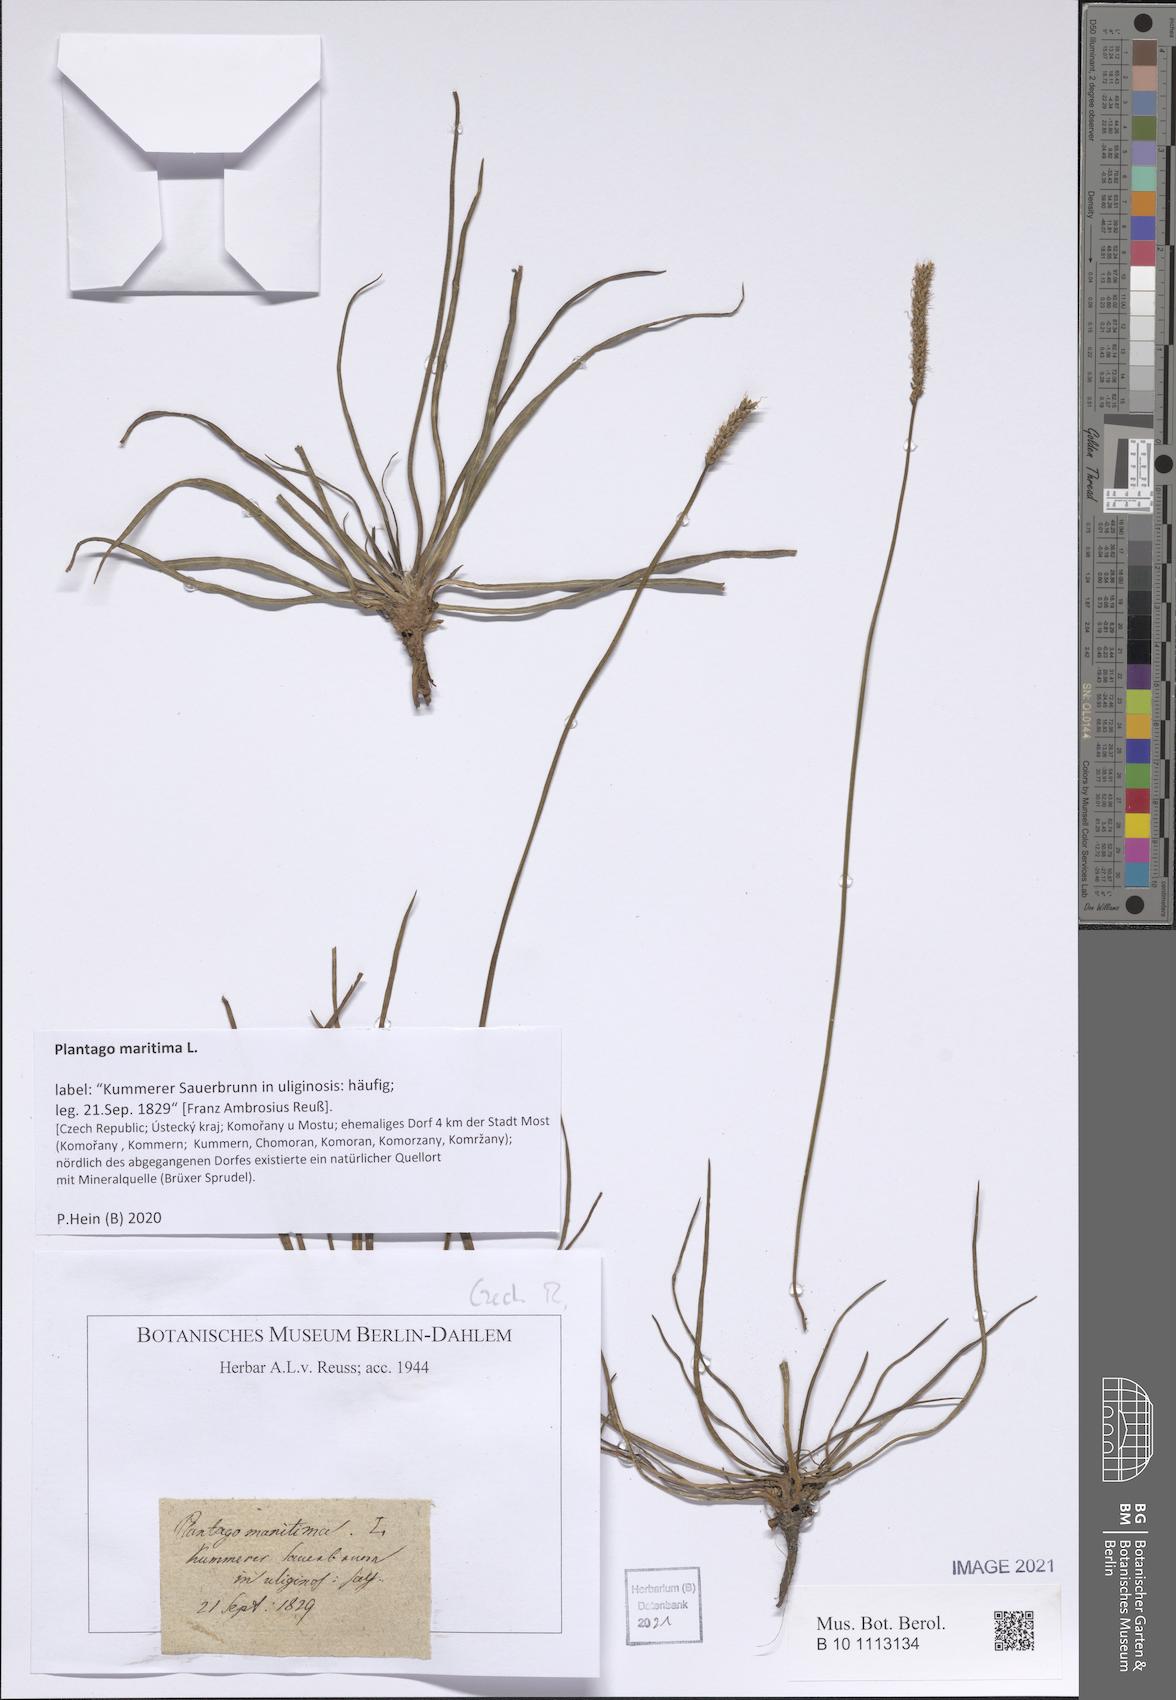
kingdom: Plantae
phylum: Tracheophyta
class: Magnoliopsida
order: Lamiales
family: Plantaginaceae
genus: Plantago
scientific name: Plantago maritima
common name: Sea plantain
